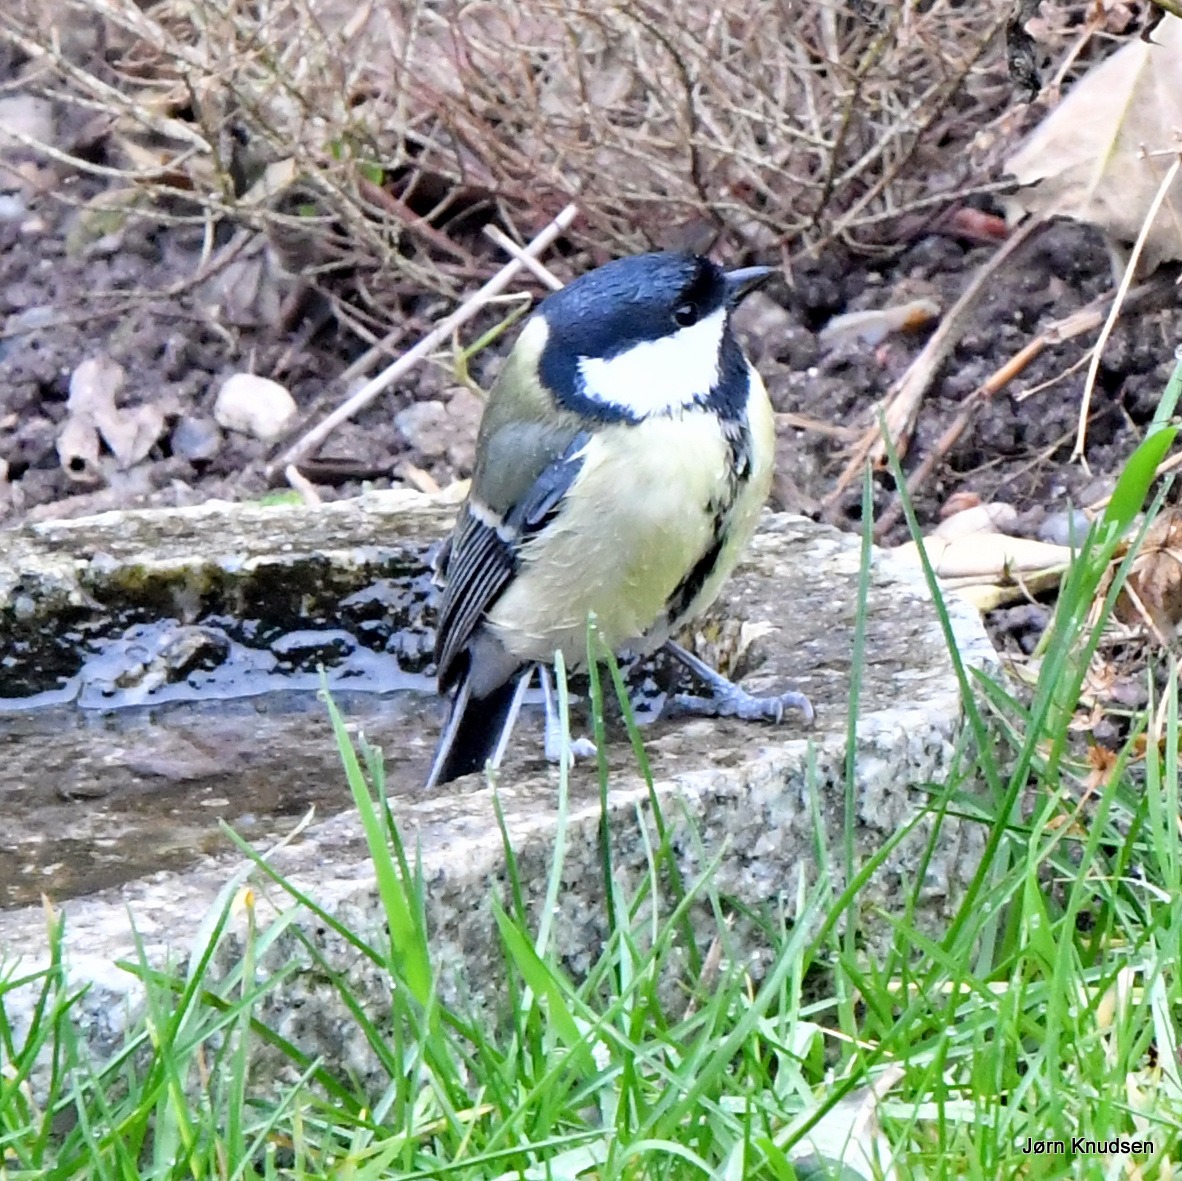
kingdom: Animalia
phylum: Chordata
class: Aves
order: Passeriformes
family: Paridae
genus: Parus
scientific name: Parus major
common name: Musvit
